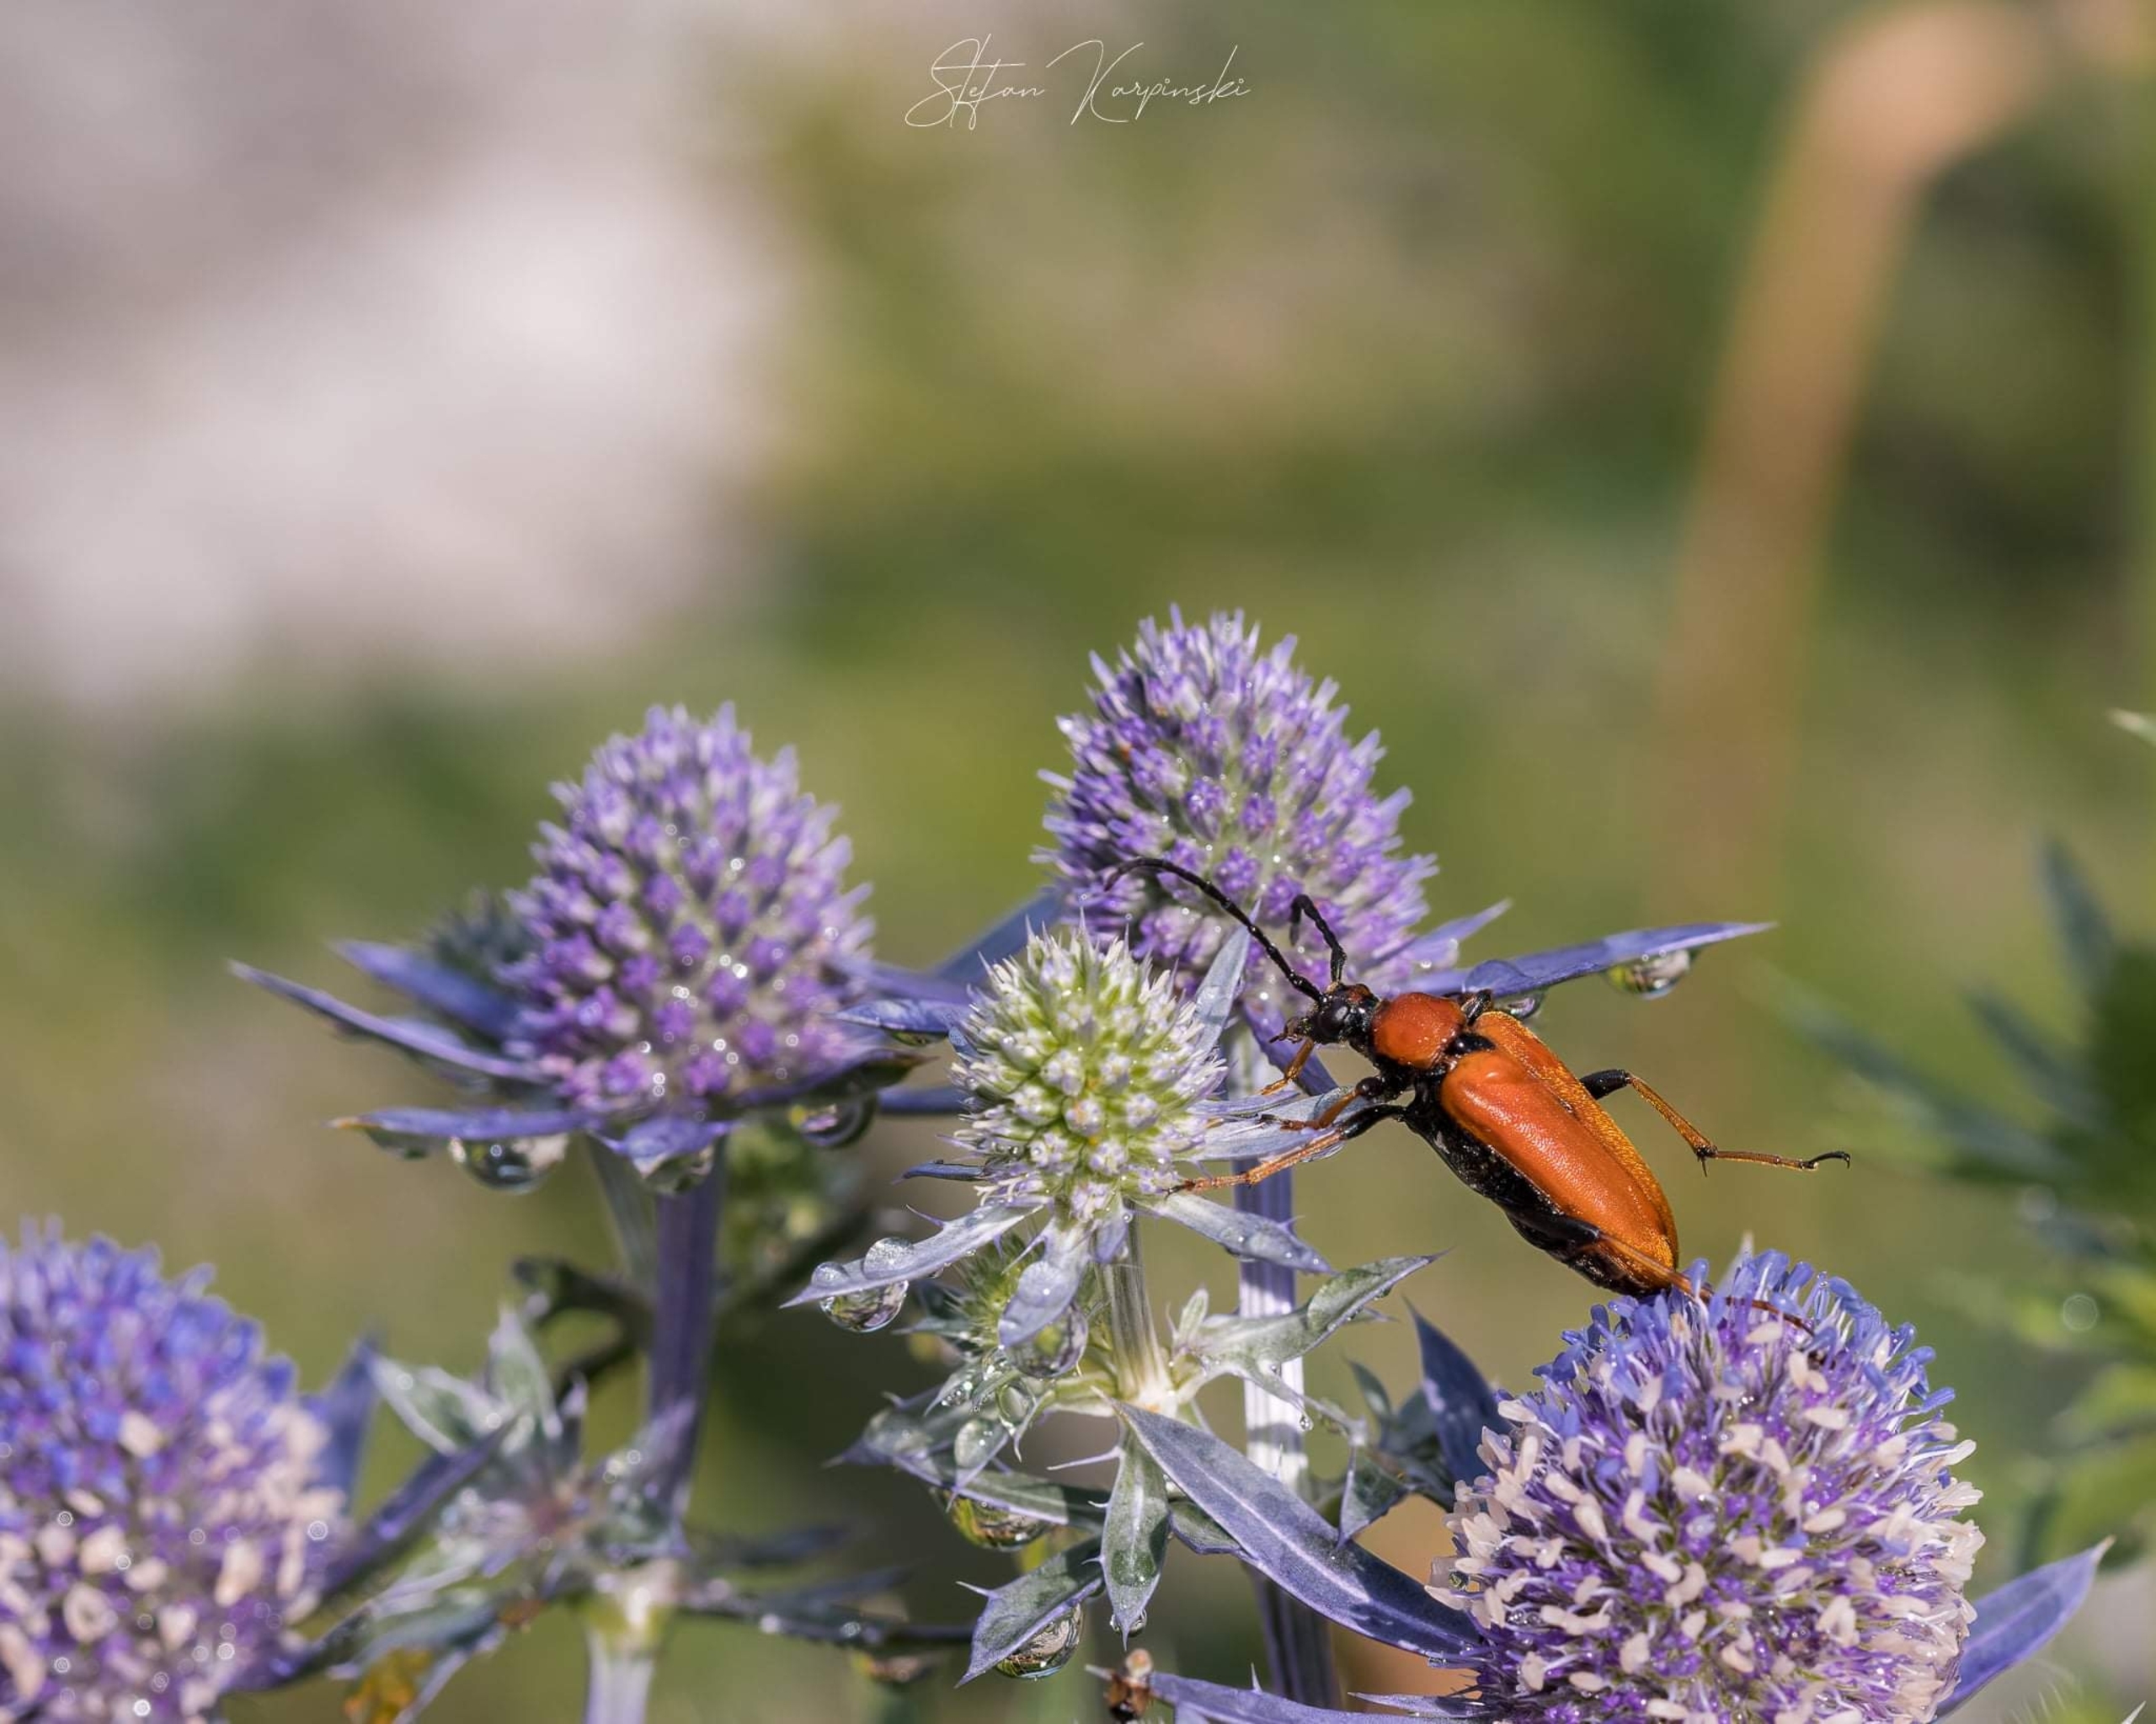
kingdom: Animalia
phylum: Arthropoda
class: Insecta
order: Coleoptera
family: Cerambycidae
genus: Stictoleptura
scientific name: Stictoleptura rubra
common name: Rød blomsterbuk
